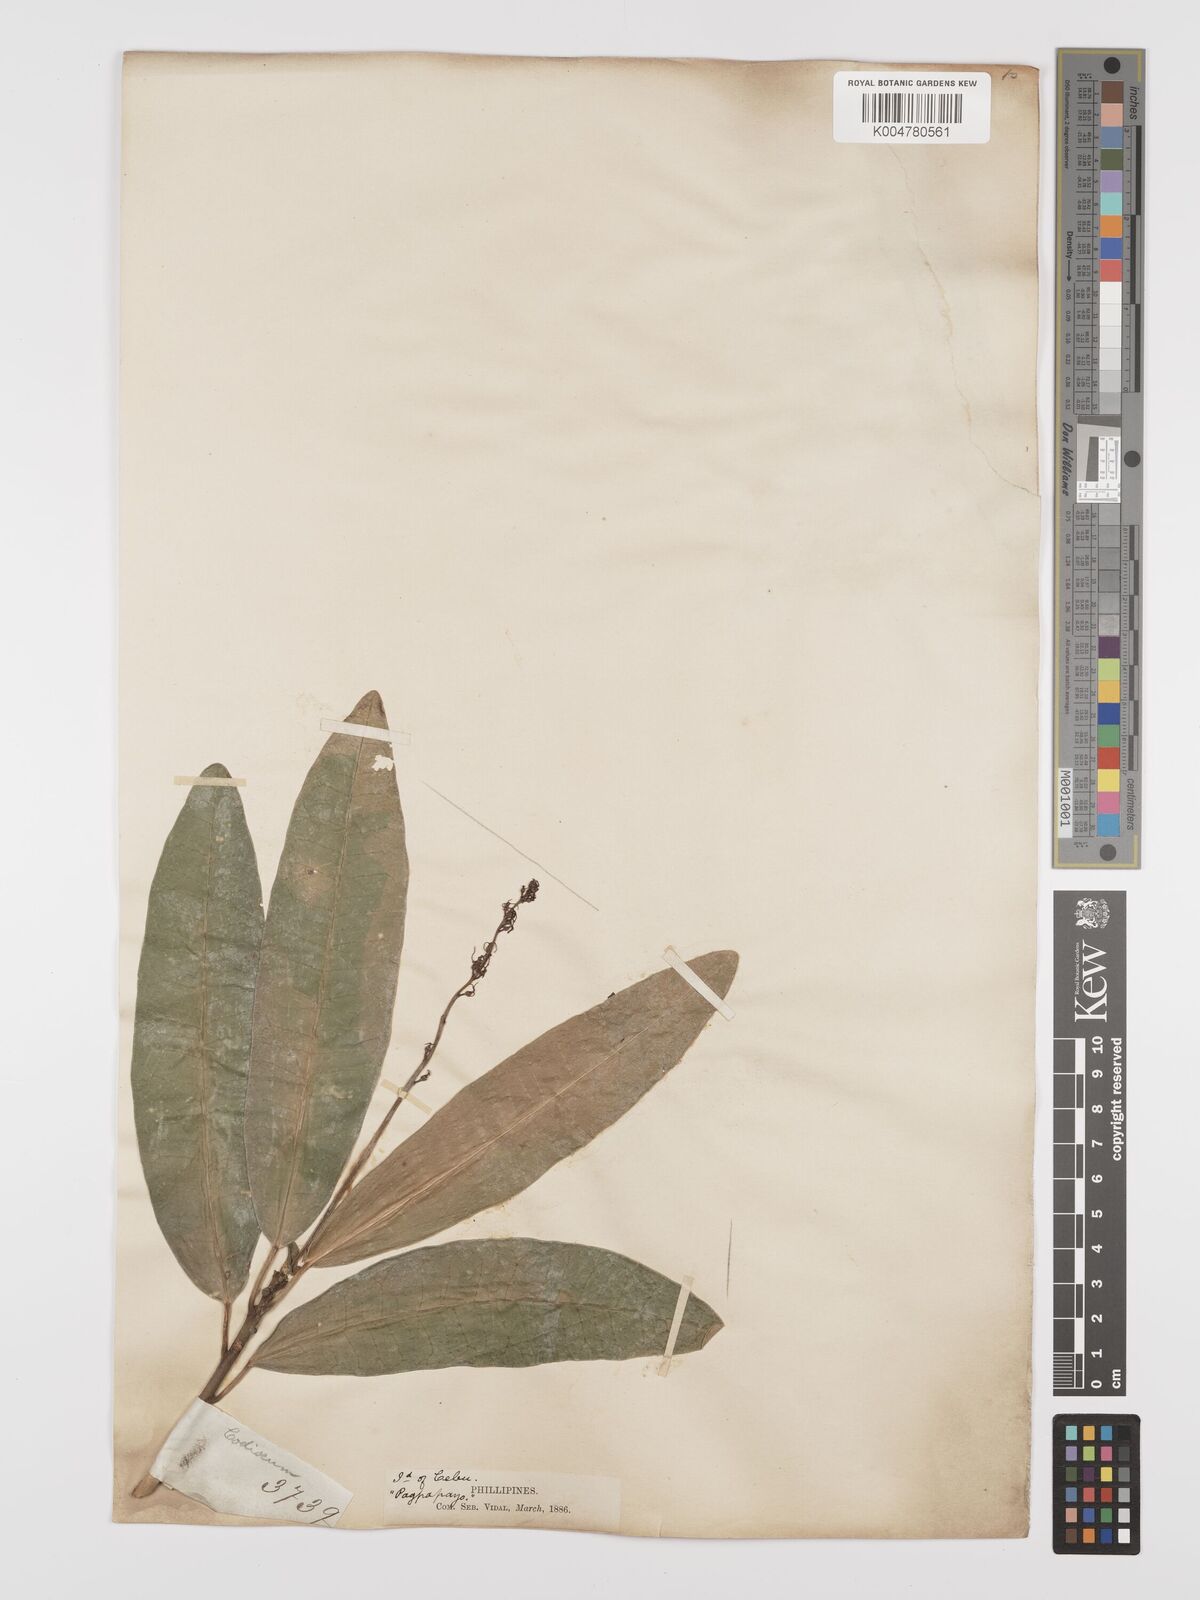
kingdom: Plantae
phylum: Tracheophyta
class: Magnoliopsida
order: Malpighiales
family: Euphorbiaceae
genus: Codiaeum
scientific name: Codiaeum variegatum
